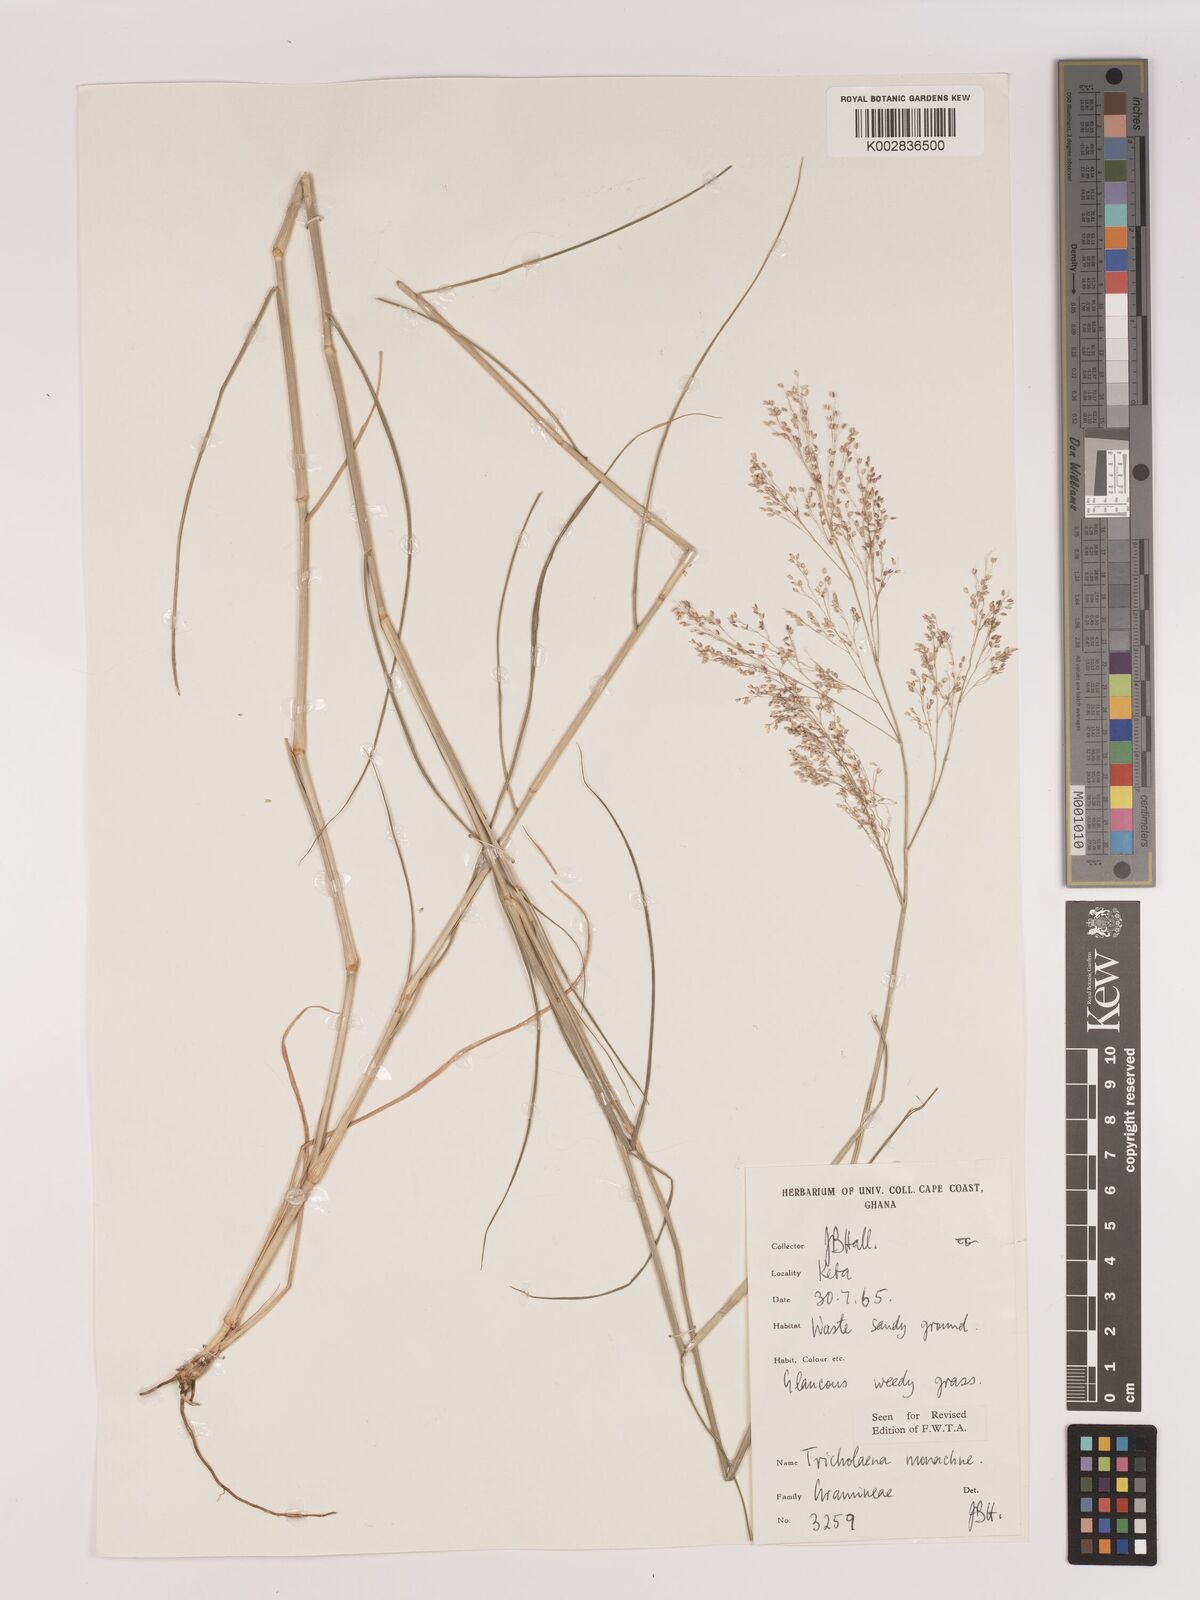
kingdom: Plantae
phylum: Tracheophyta
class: Liliopsida
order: Poales
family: Poaceae
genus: Tricholaena
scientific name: Tricholaena monachne
